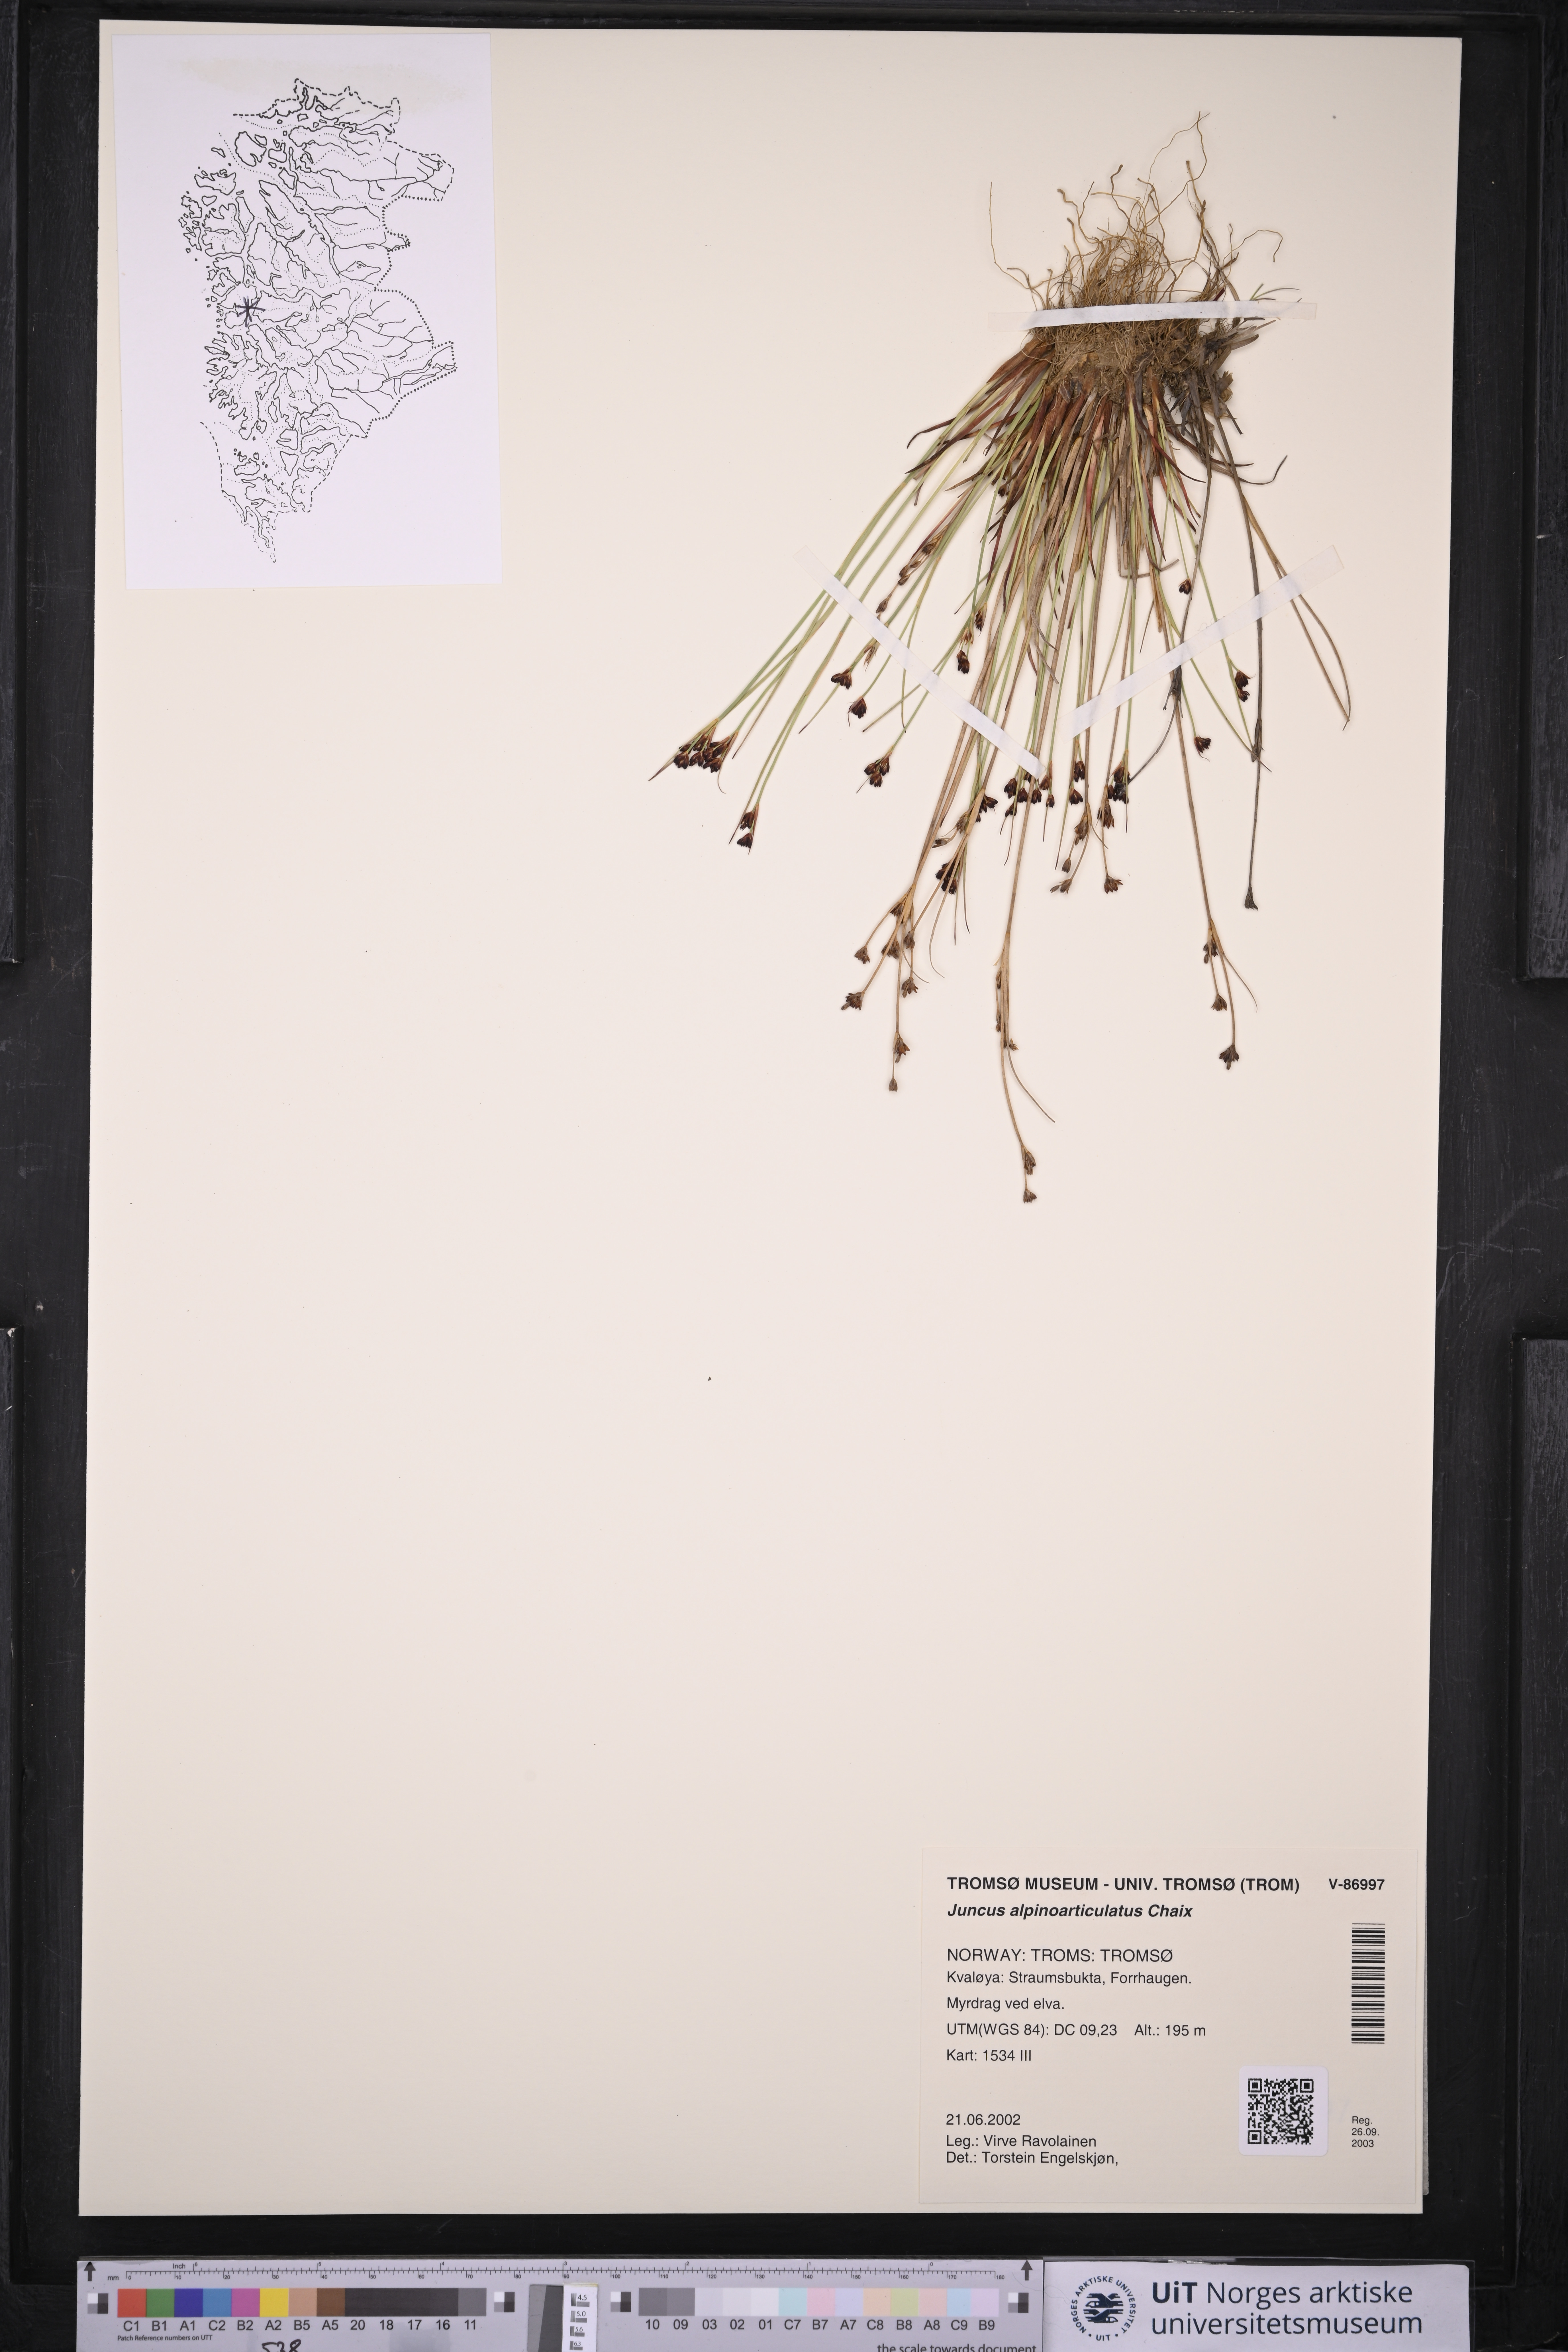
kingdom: Plantae
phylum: Tracheophyta
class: Liliopsida
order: Poales
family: Juncaceae
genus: Juncus
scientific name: Juncus alpinoarticulatus
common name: Alpine rush
